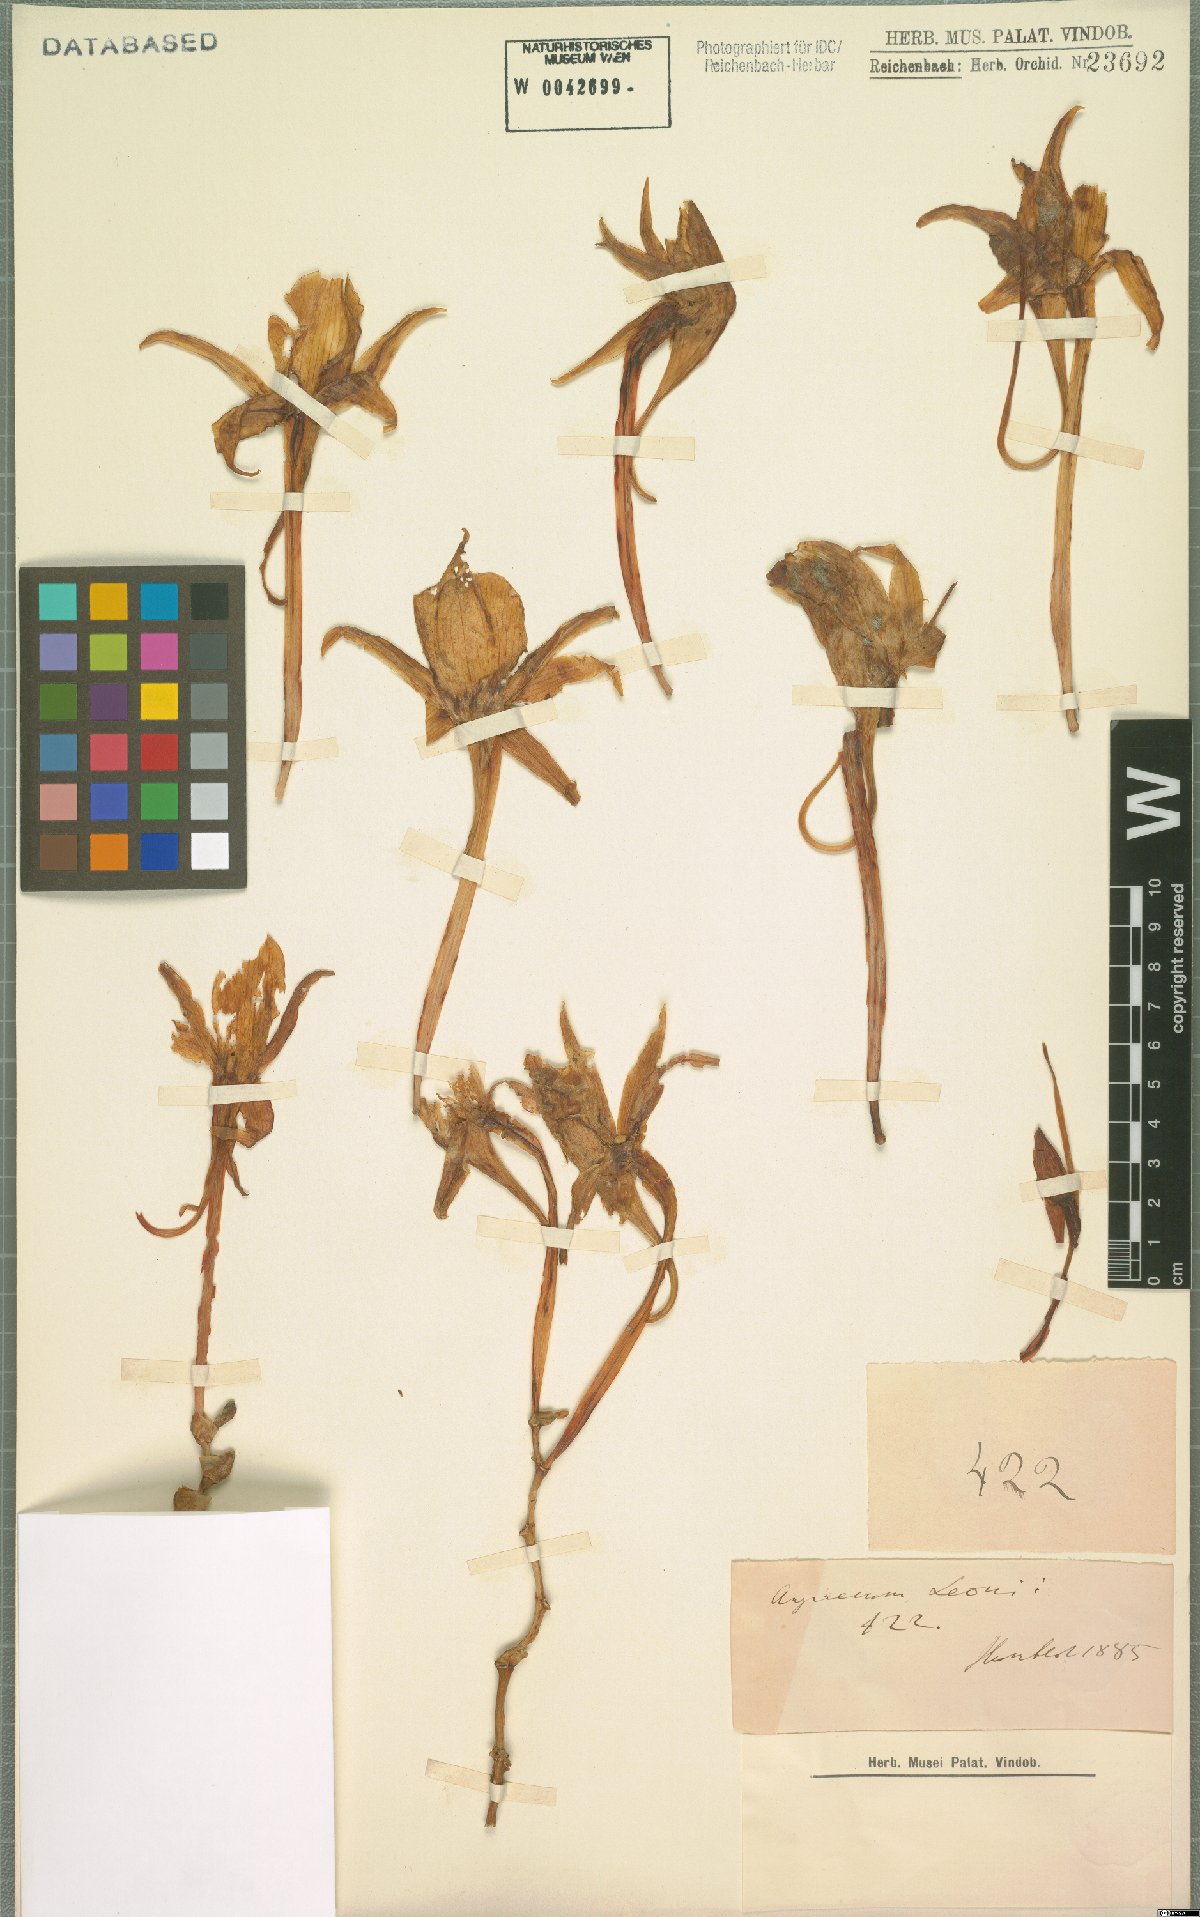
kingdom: Plantae
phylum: Tracheophyta
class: Liliopsida
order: Asparagales
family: Orchidaceae
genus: Angraecum
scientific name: Angraecum leonis
